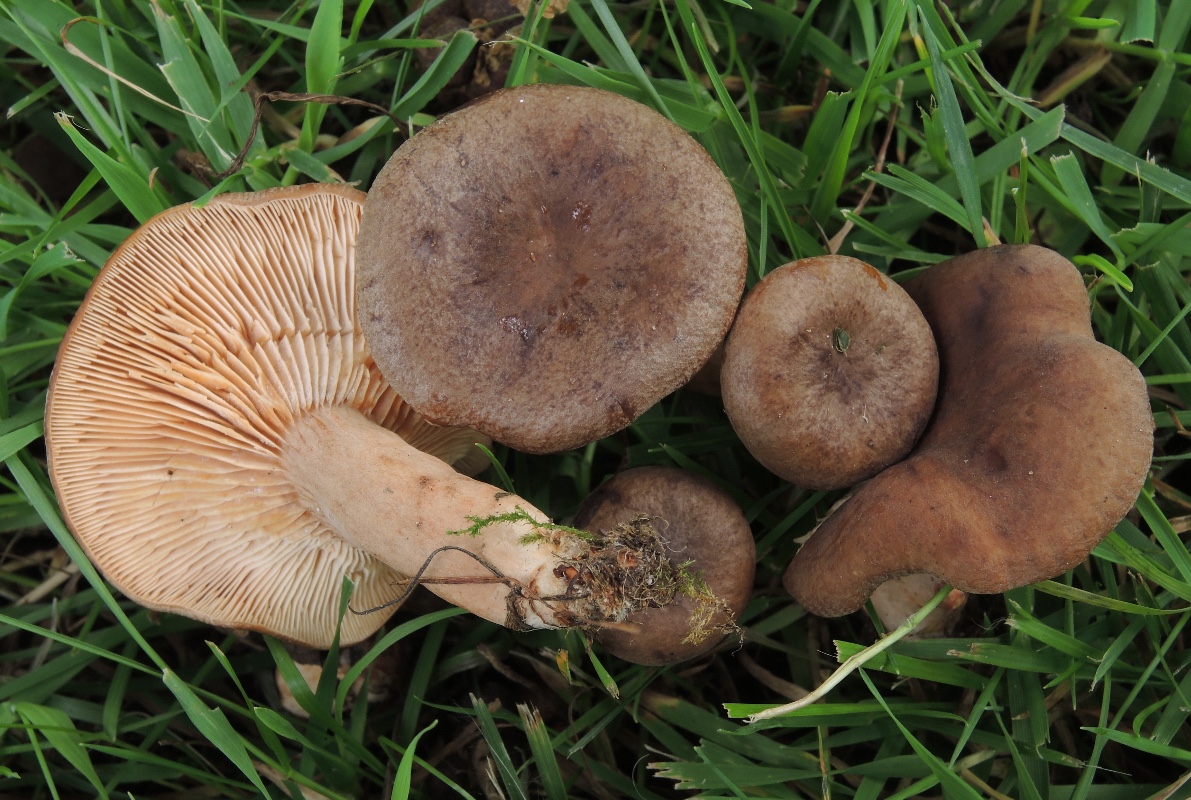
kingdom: Fungi
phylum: Basidiomycota
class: Agaricomycetes
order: Russulales
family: Russulaceae
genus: Lactarius
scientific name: Lactarius serifluus
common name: tæge-mælkehat
